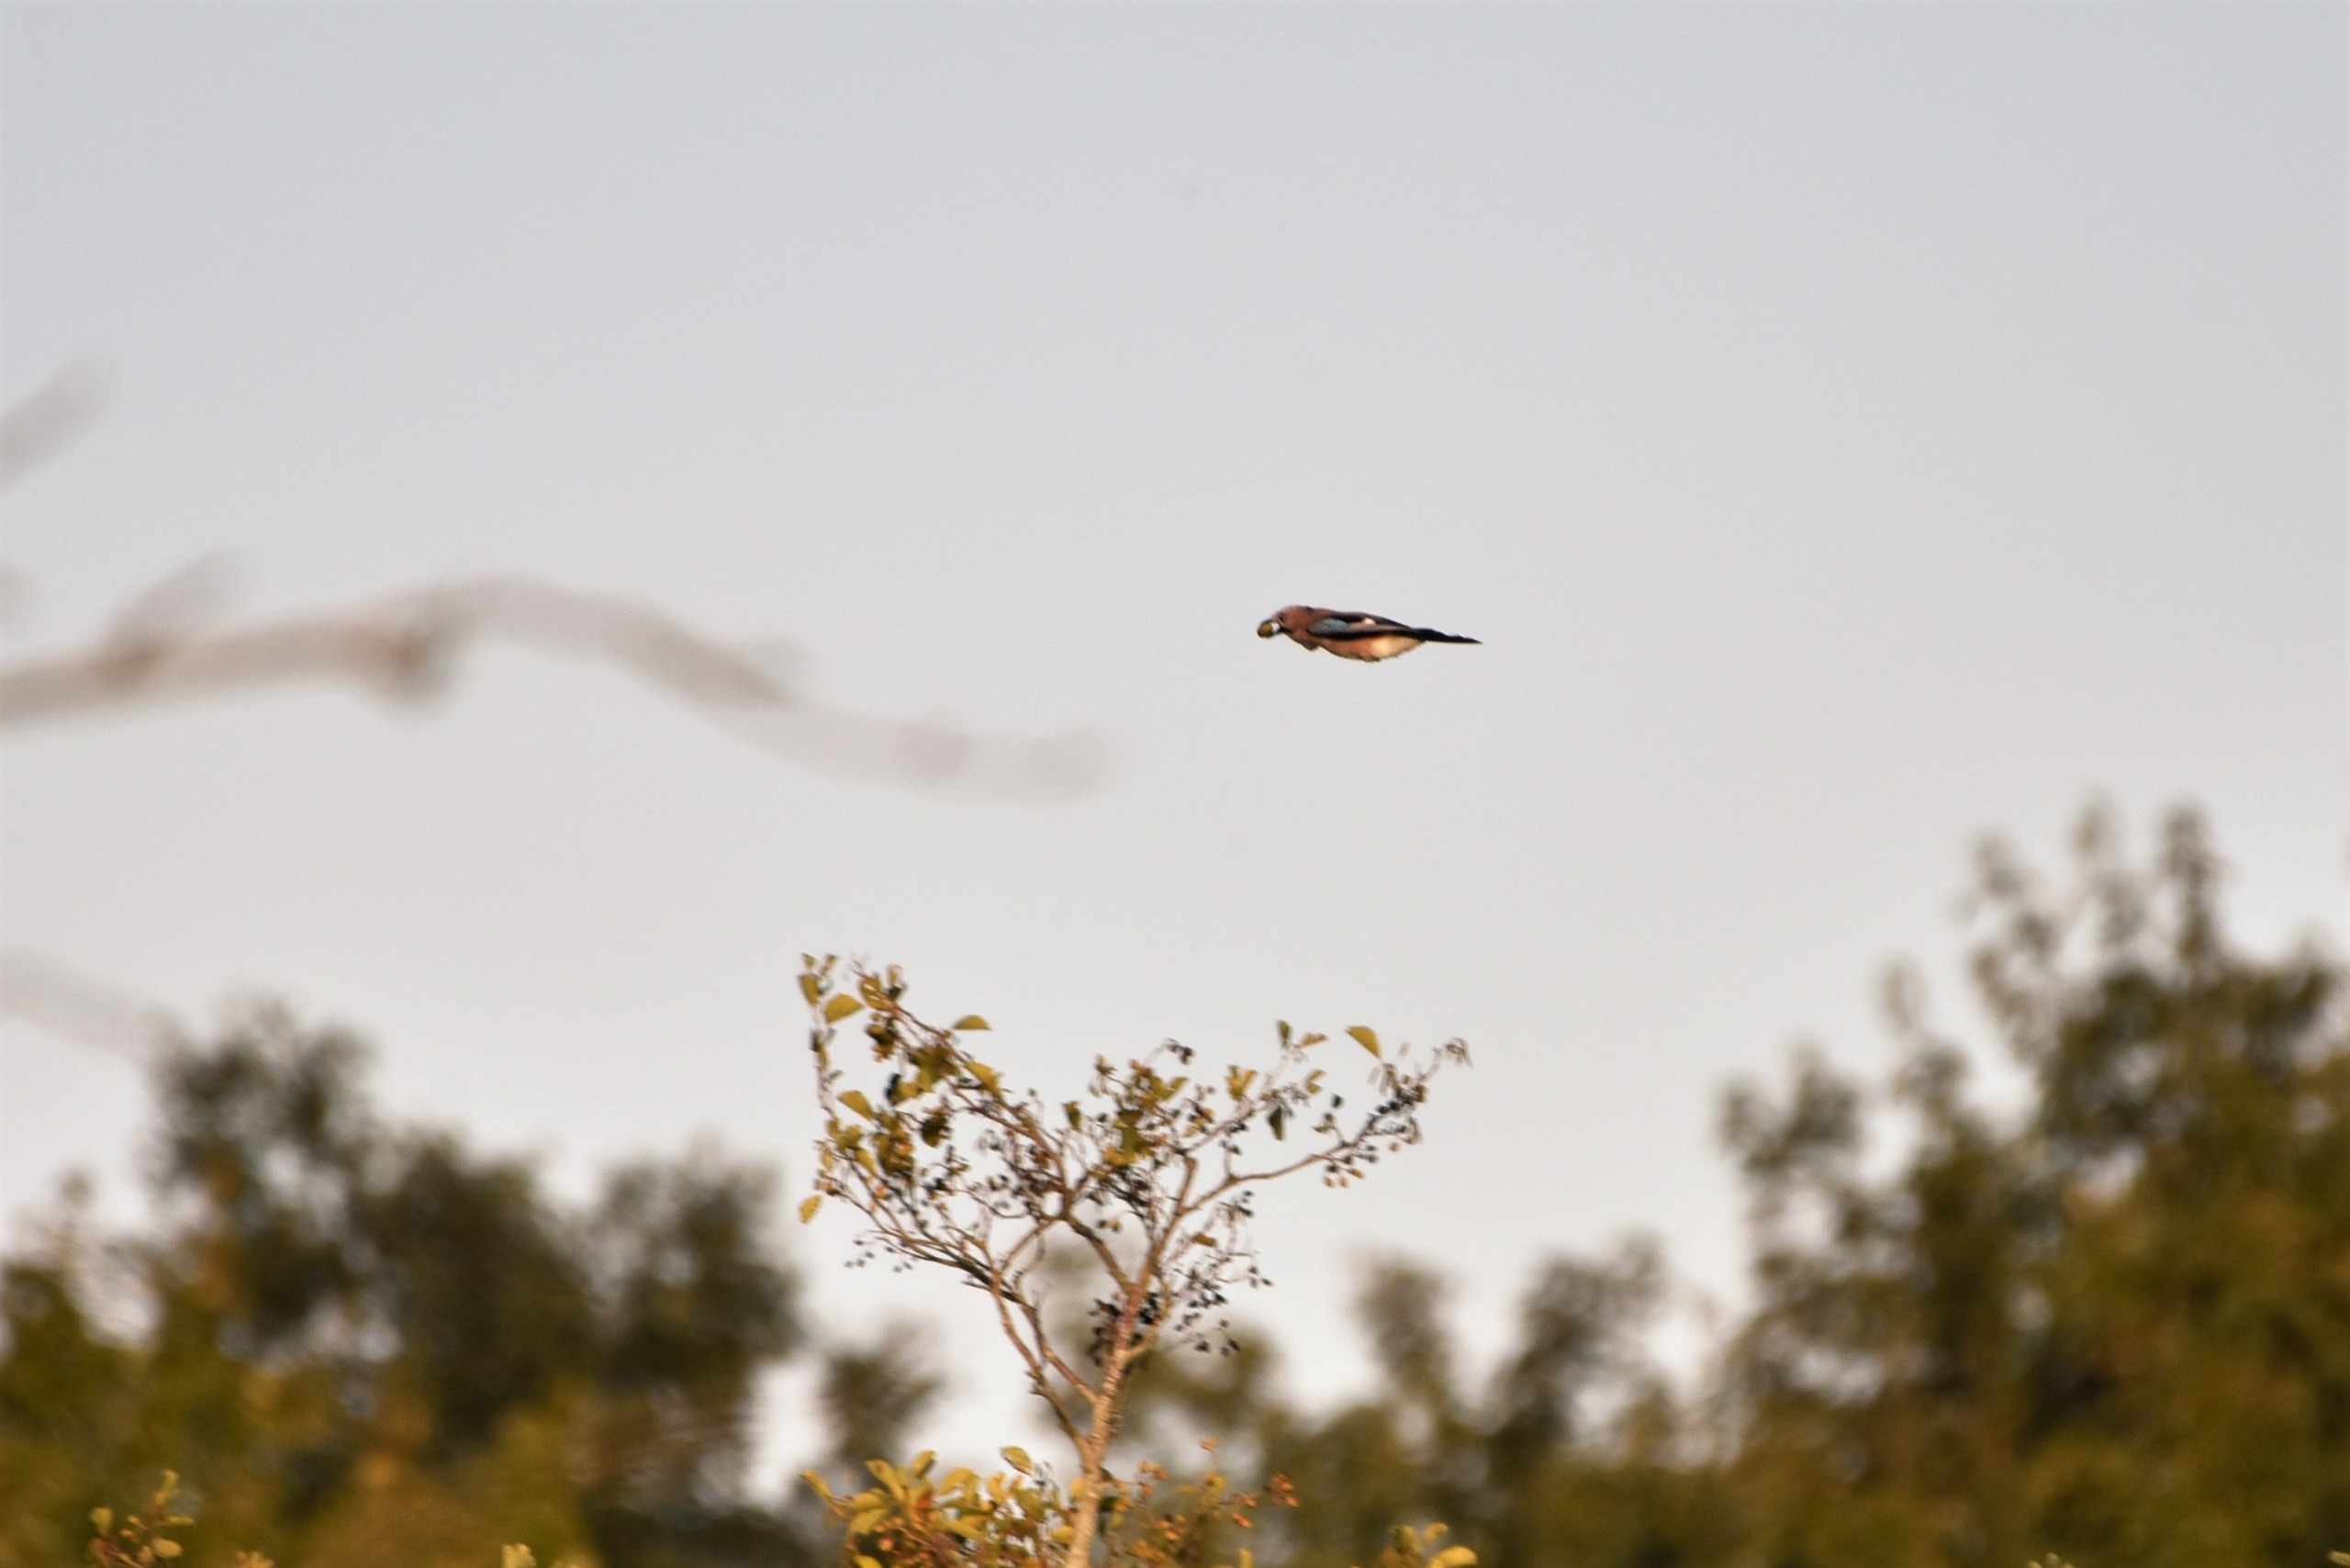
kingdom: Animalia
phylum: Chordata
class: Aves
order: Passeriformes
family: Corvidae
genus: Garrulus
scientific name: Garrulus glandarius
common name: Skovskade
